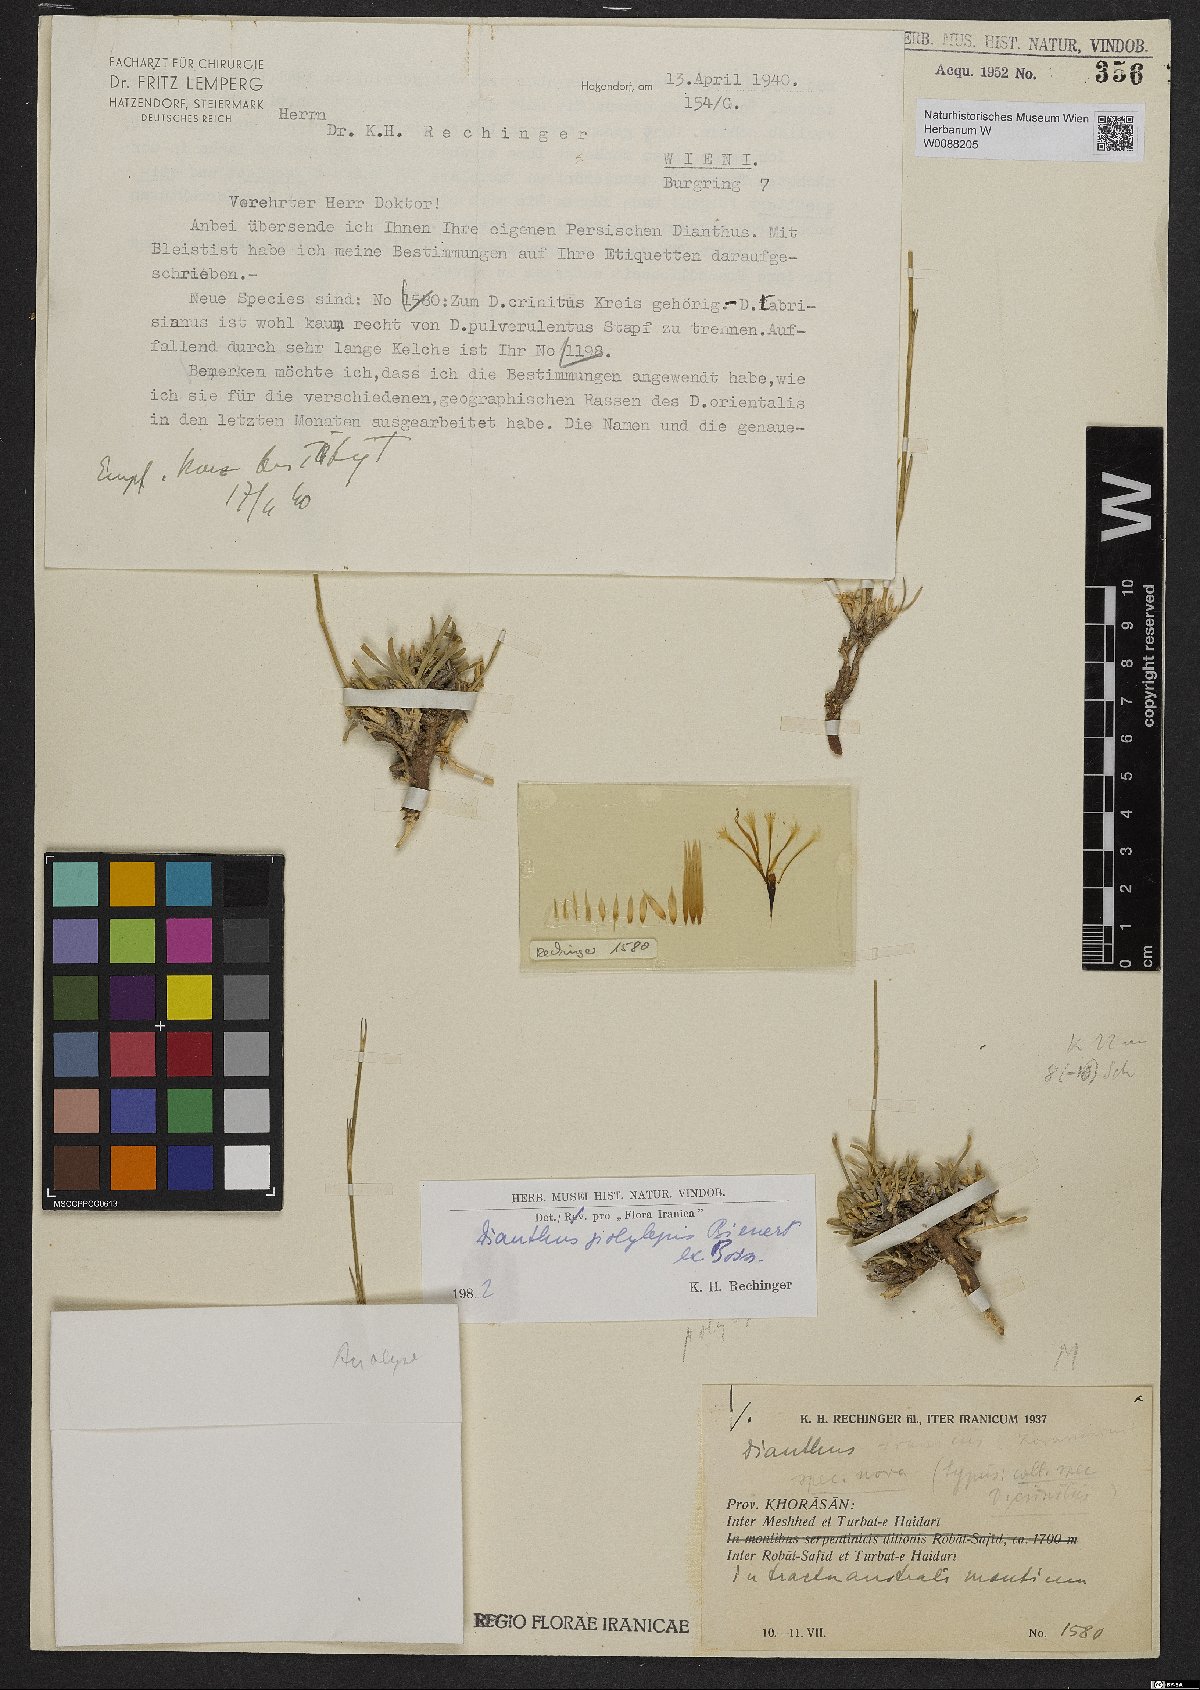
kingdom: Plantae
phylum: Tracheophyta
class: Magnoliopsida
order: Caryophyllales
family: Caryophyllaceae
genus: Dianthus
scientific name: Dianthus polylepis
